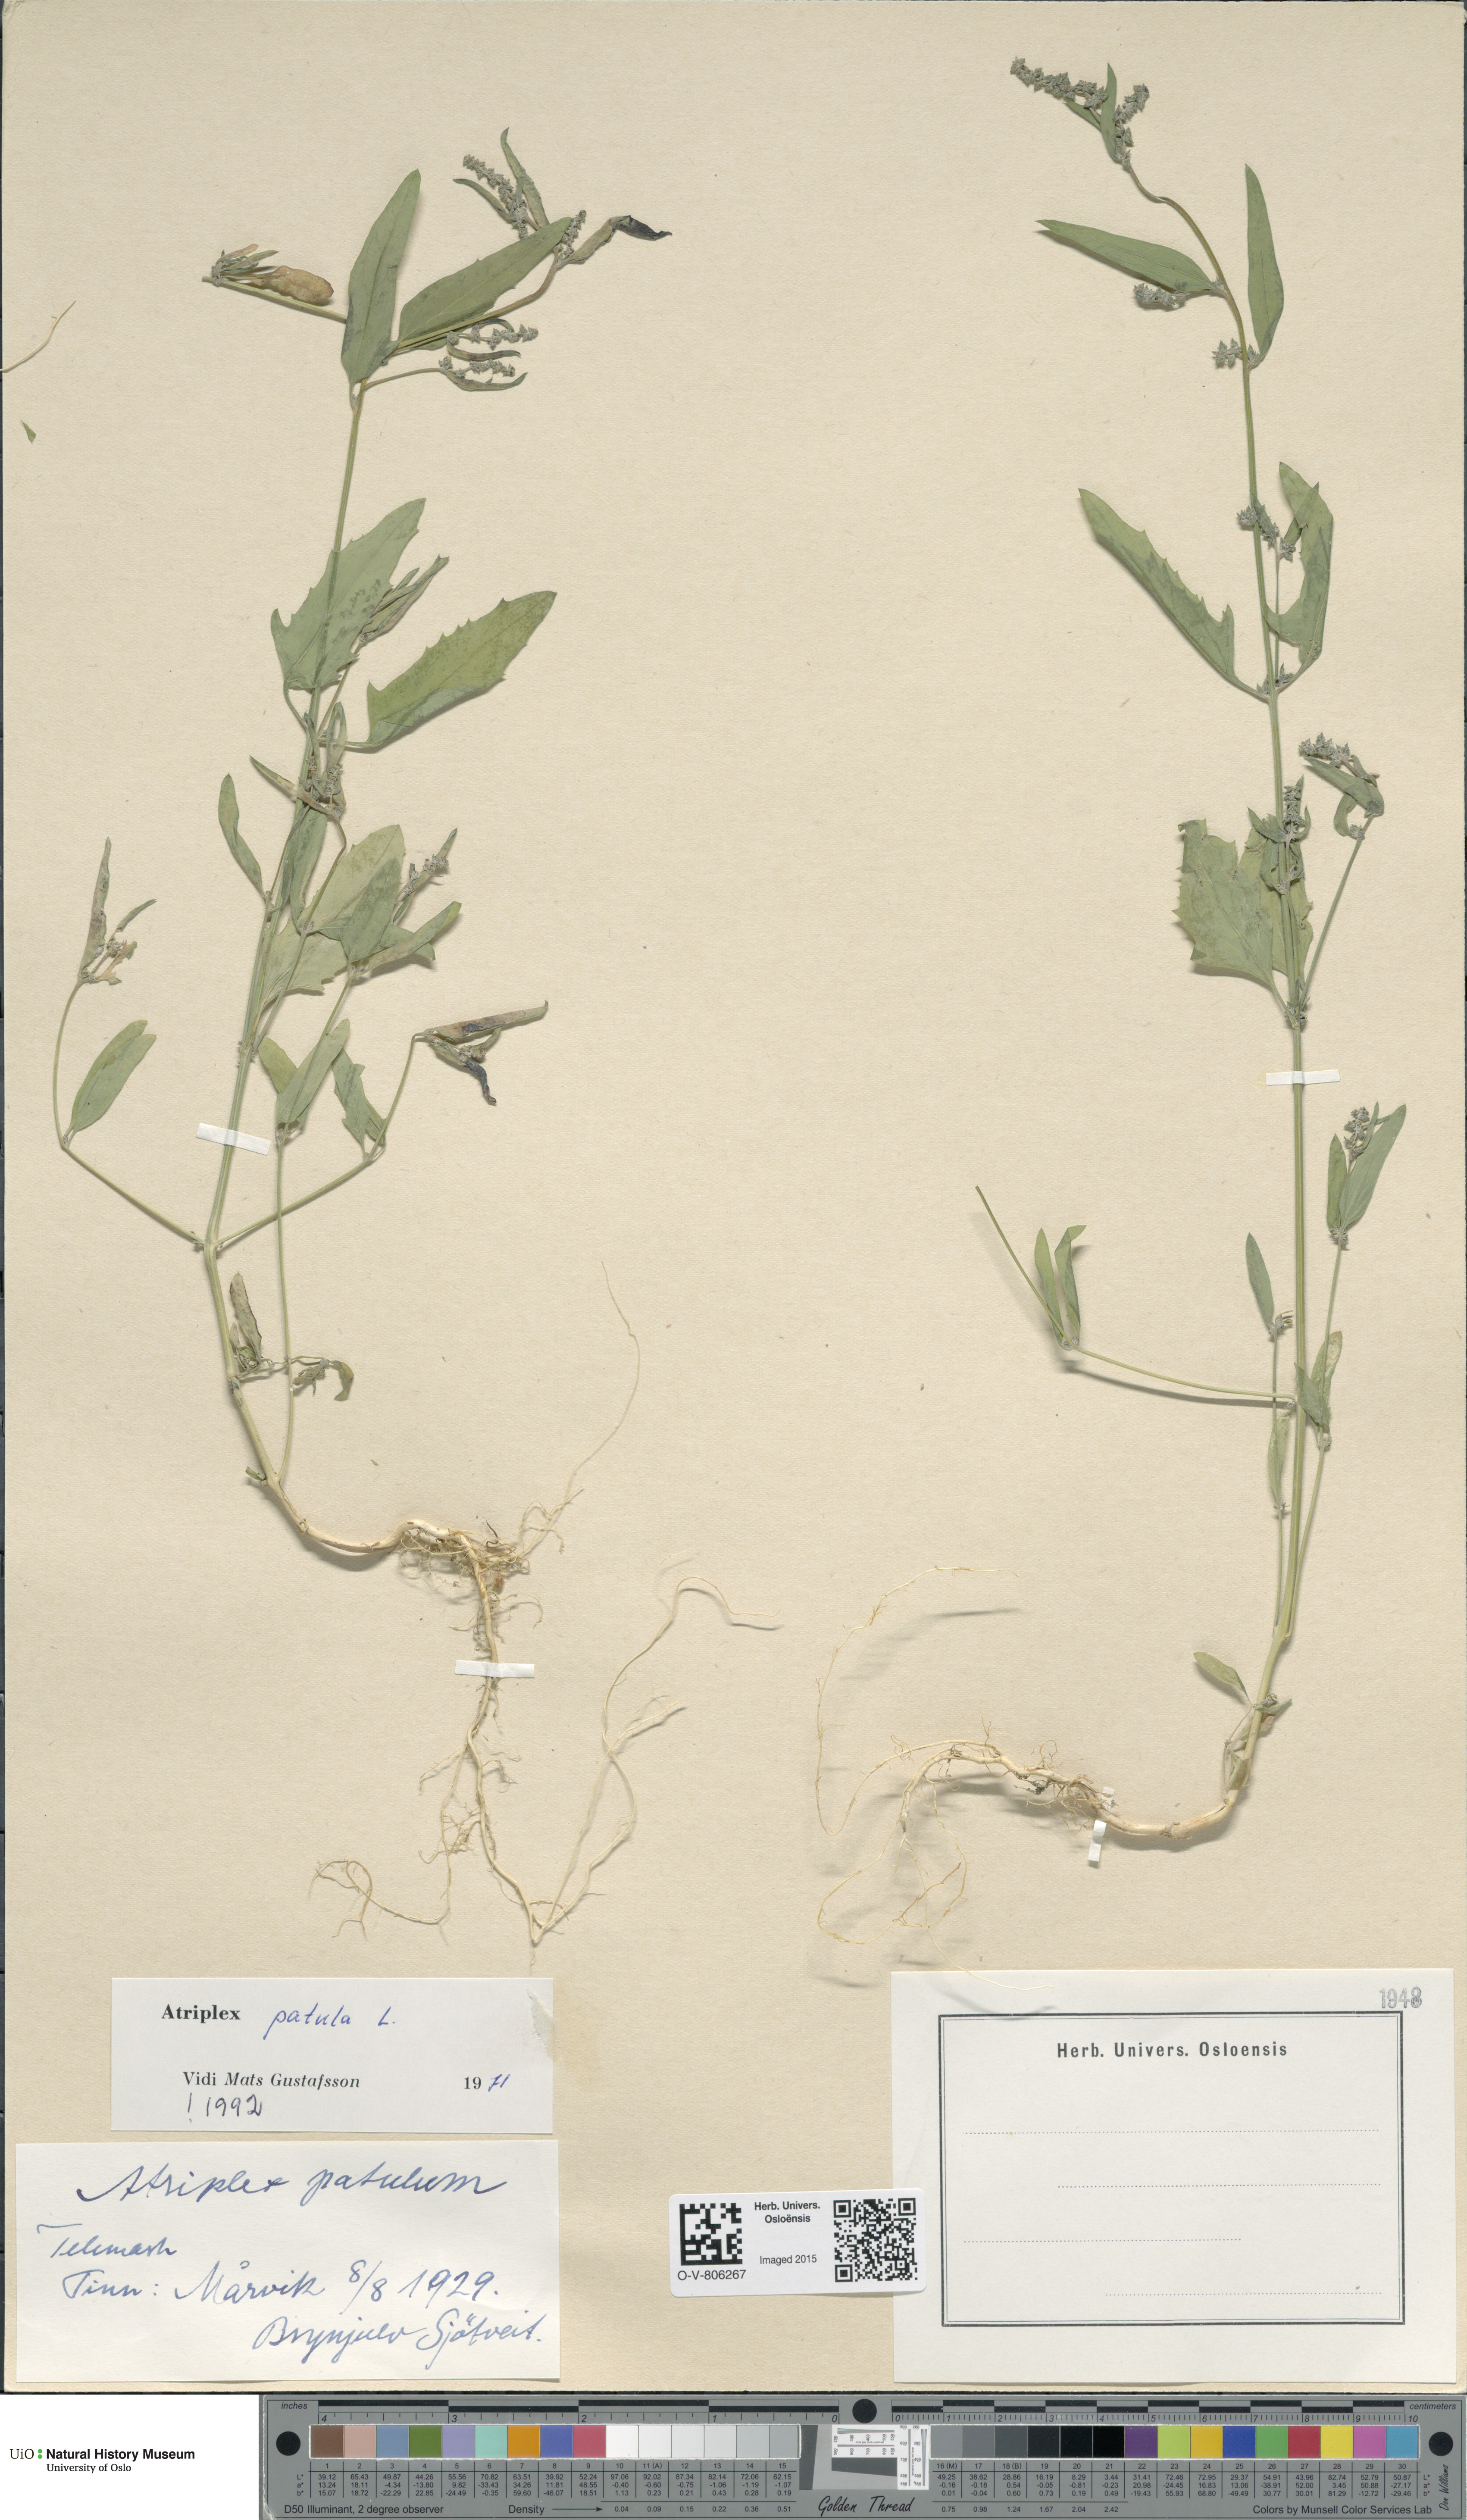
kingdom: Plantae
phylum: Tracheophyta
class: Magnoliopsida
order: Caryophyllales
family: Amaranthaceae
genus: Atriplex
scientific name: Atriplex patula
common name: Common orache
